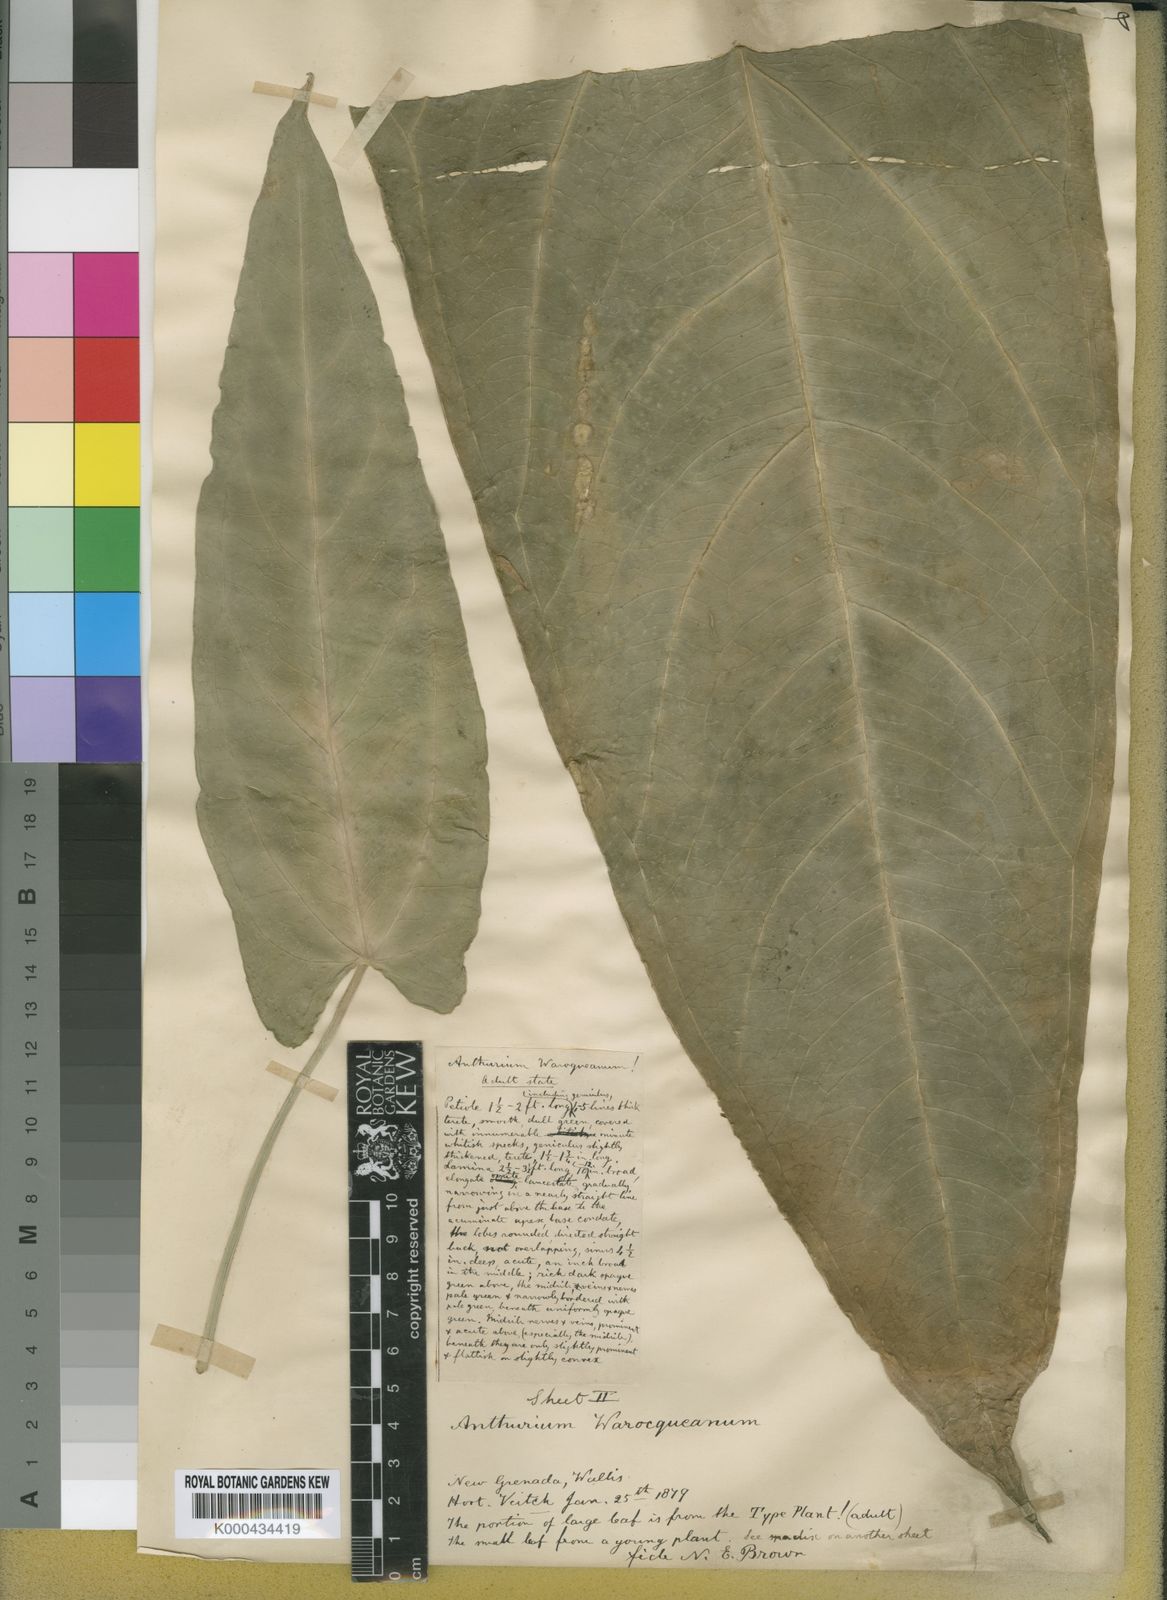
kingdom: Plantae
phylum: Tracheophyta
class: Liliopsida
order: Alismatales
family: Araceae
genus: Anthurium
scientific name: Anthurium warocqueanum
